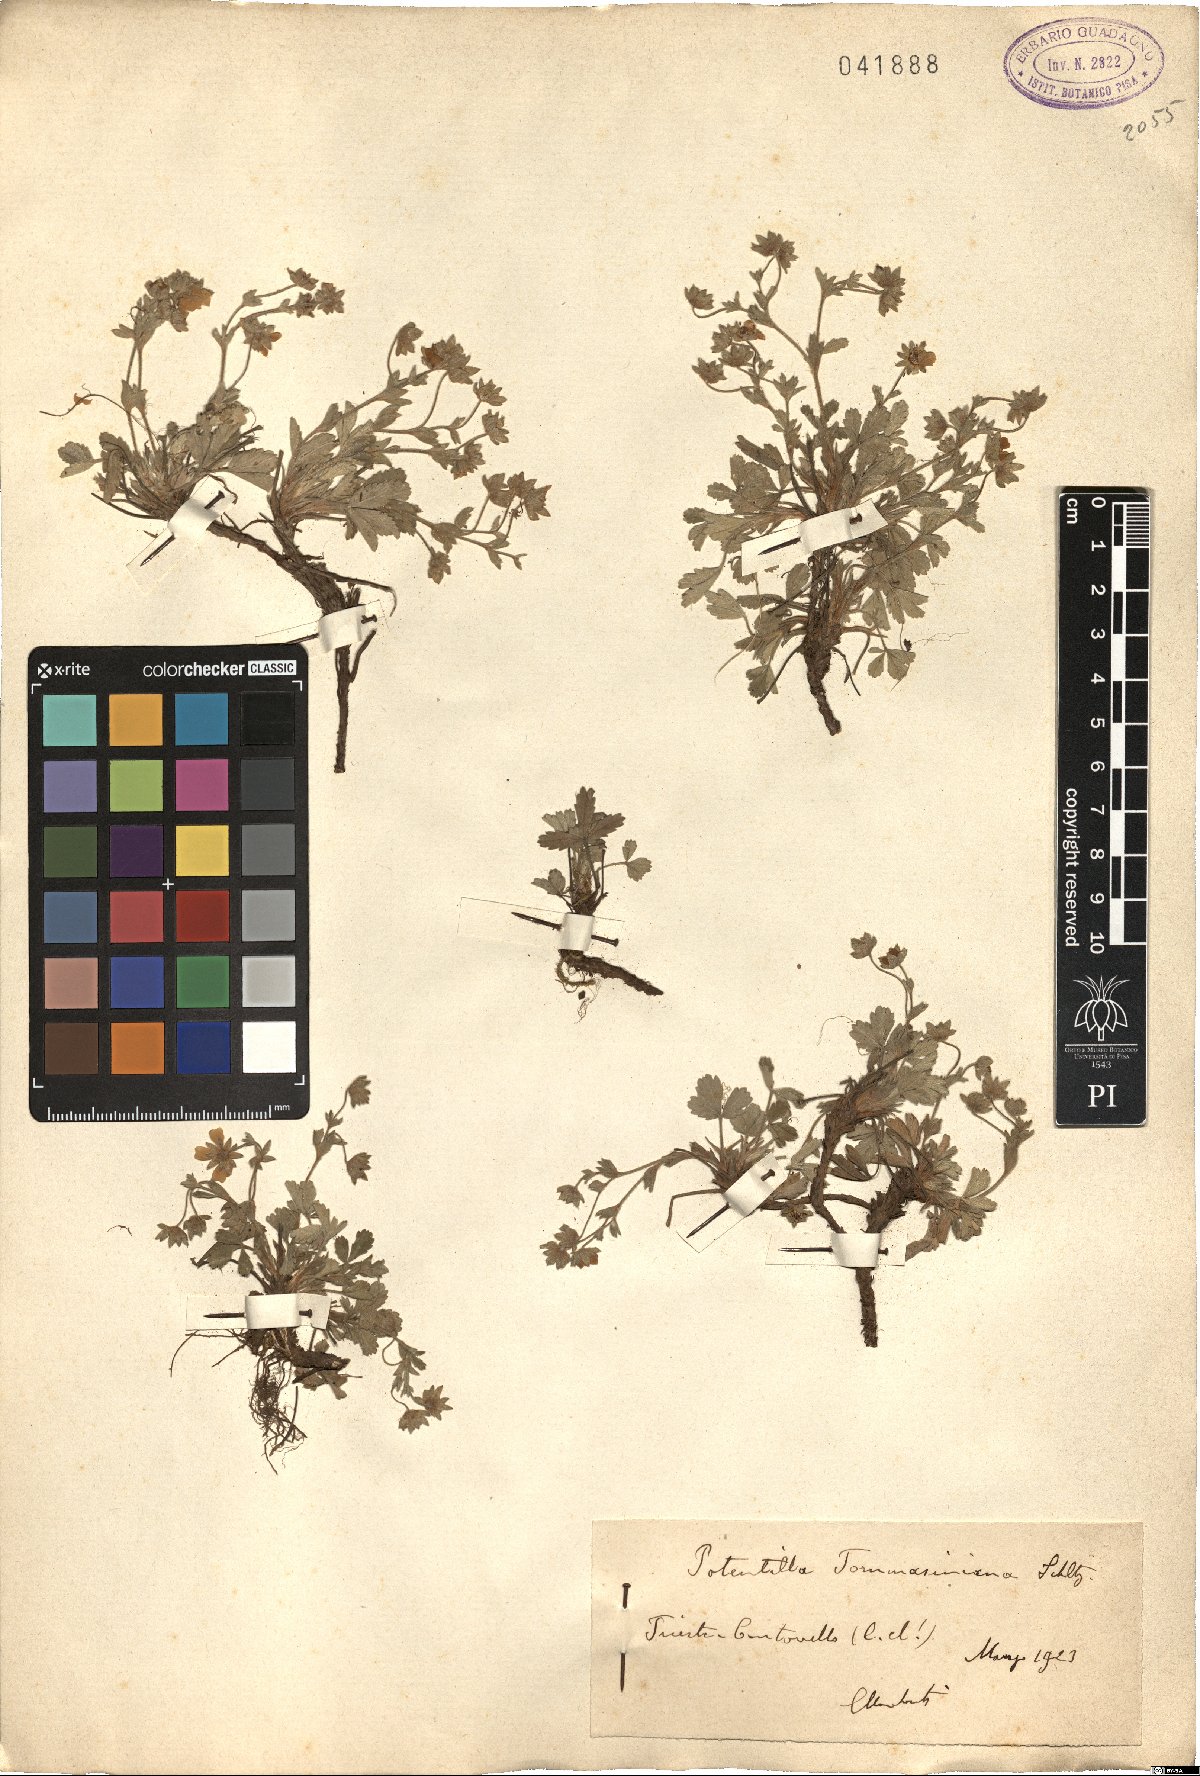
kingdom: Plantae
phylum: Tracheophyta
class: Magnoliopsida
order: Rosales
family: Rosaceae
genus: Potentilla
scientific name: Potentilla cinerea
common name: Ashy cinquefoil
